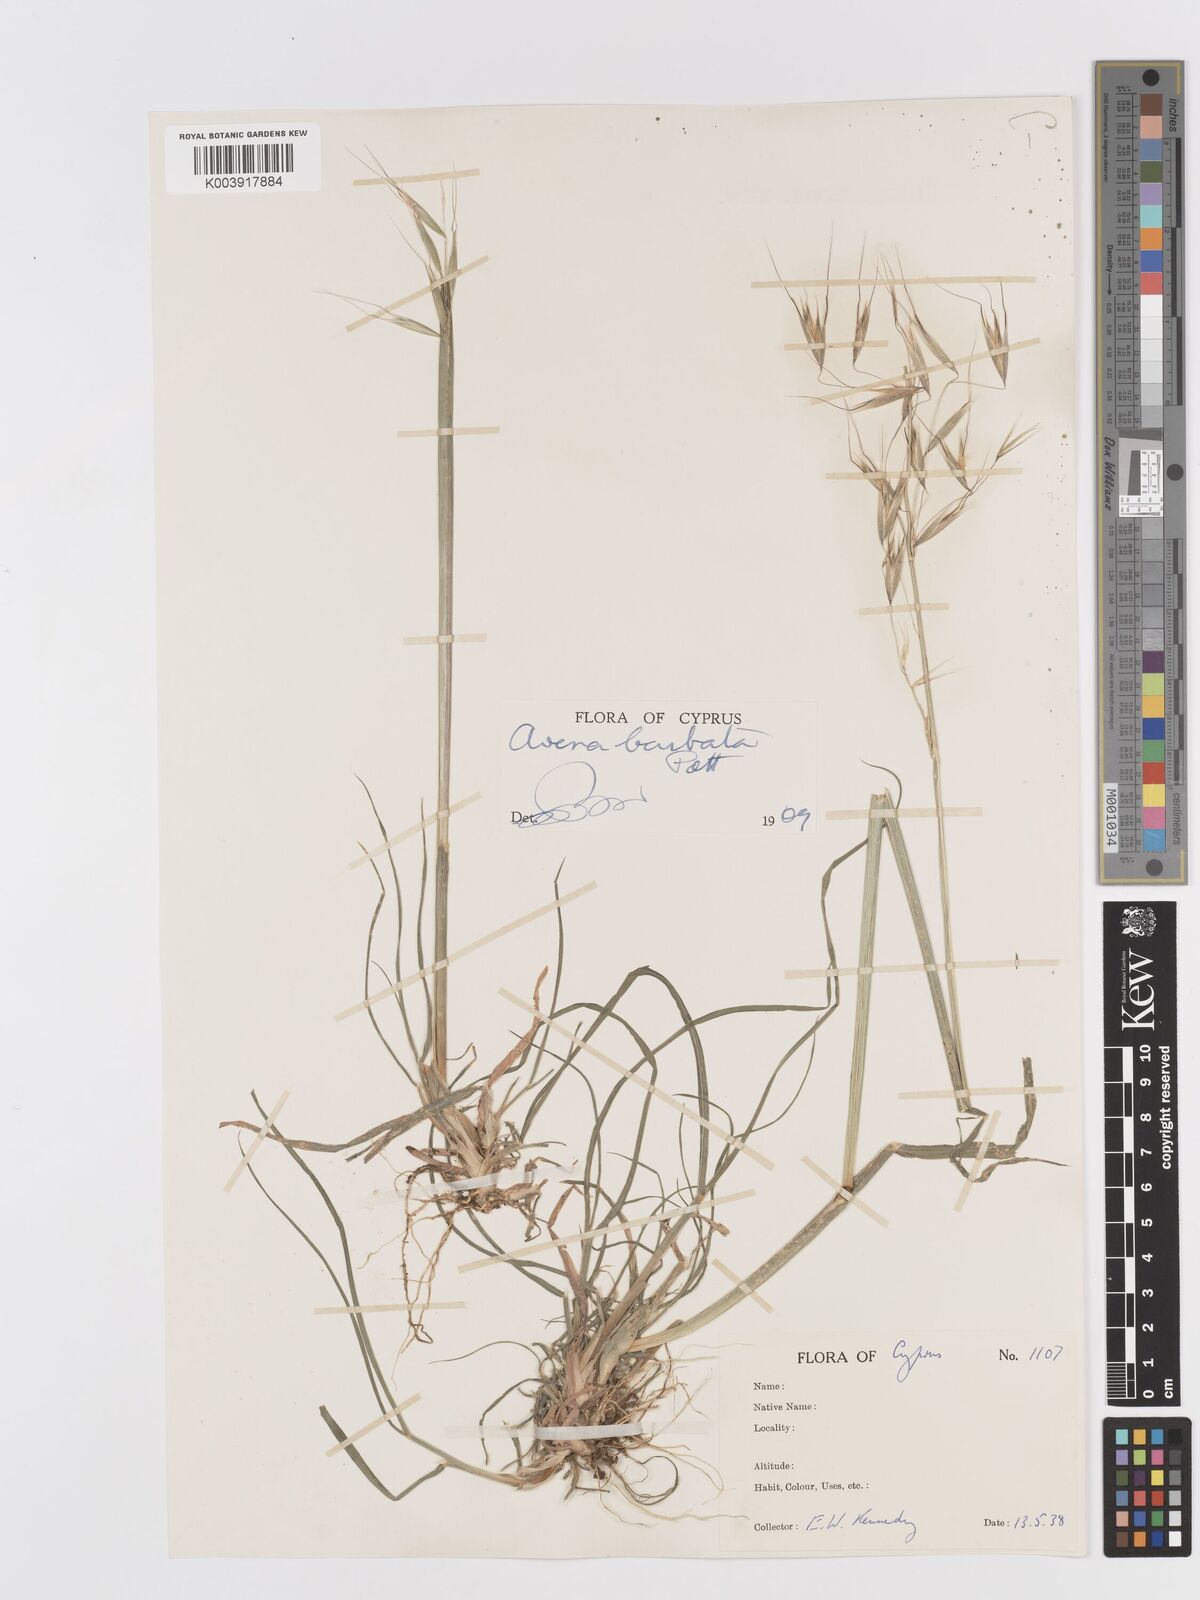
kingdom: Plantae
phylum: Tracheophyta
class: Liliopsida
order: Poales
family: Poaceae
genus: Avena
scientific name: Avena
